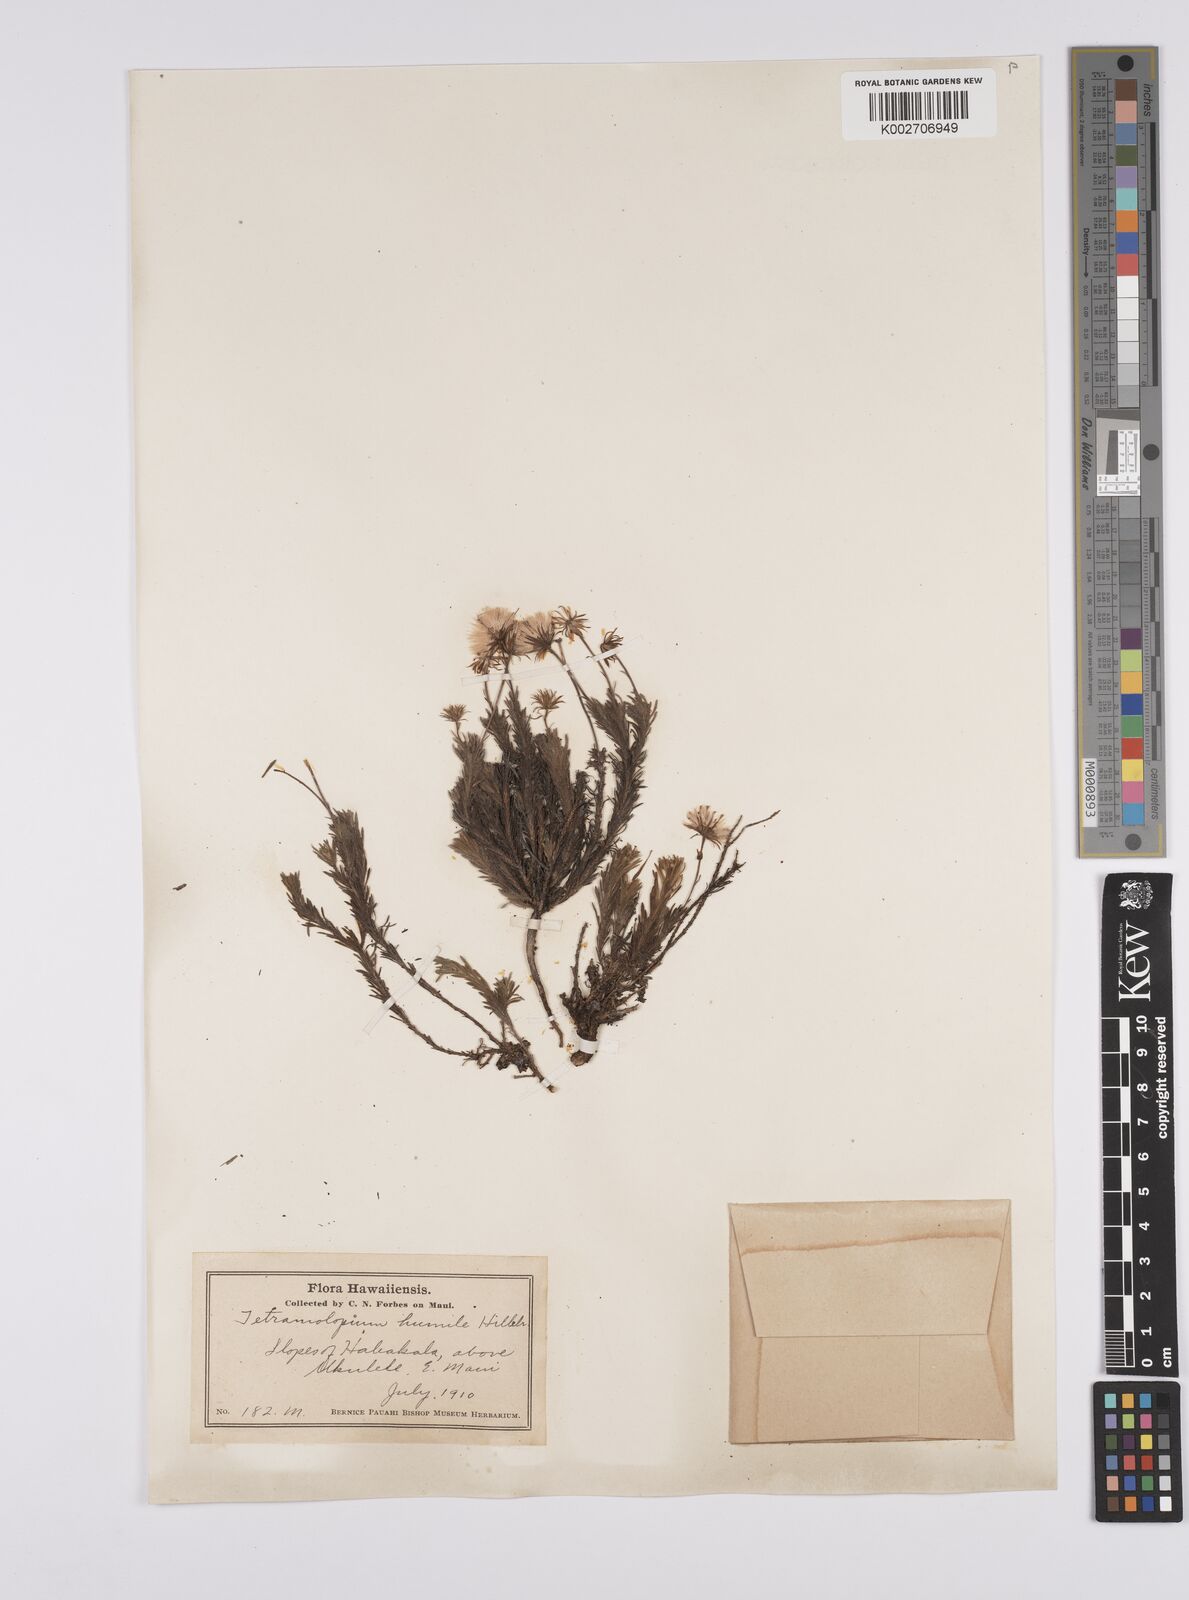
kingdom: Plantae
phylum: Tracheophyta
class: Magnoliopsida
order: Asterales
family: Asteraceae
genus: Tetramolopium
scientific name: Tetramolopium humile
